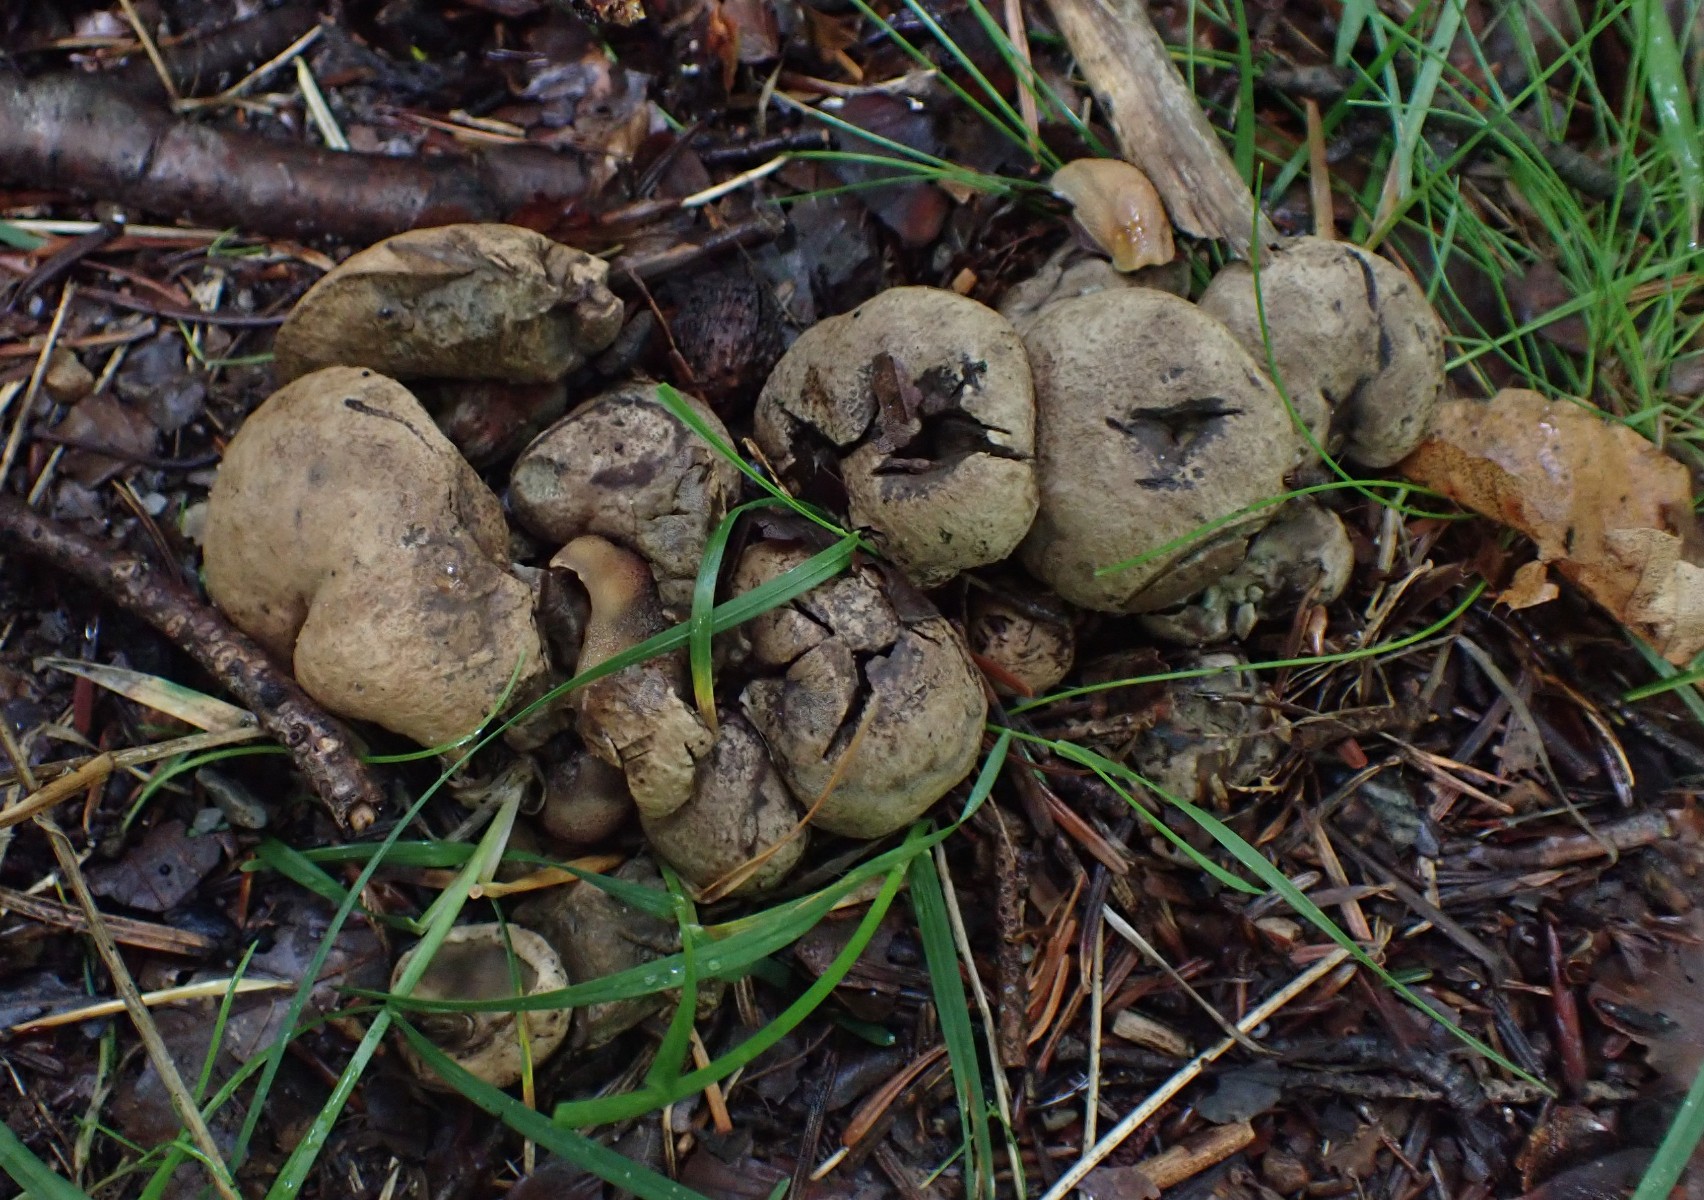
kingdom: Fungi
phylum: Basidiomycota
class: Agaricomycetes
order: Boletales
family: Boletaceae
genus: Caloboletus
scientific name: Caloboletus calopus
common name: skønfodet rørhat
